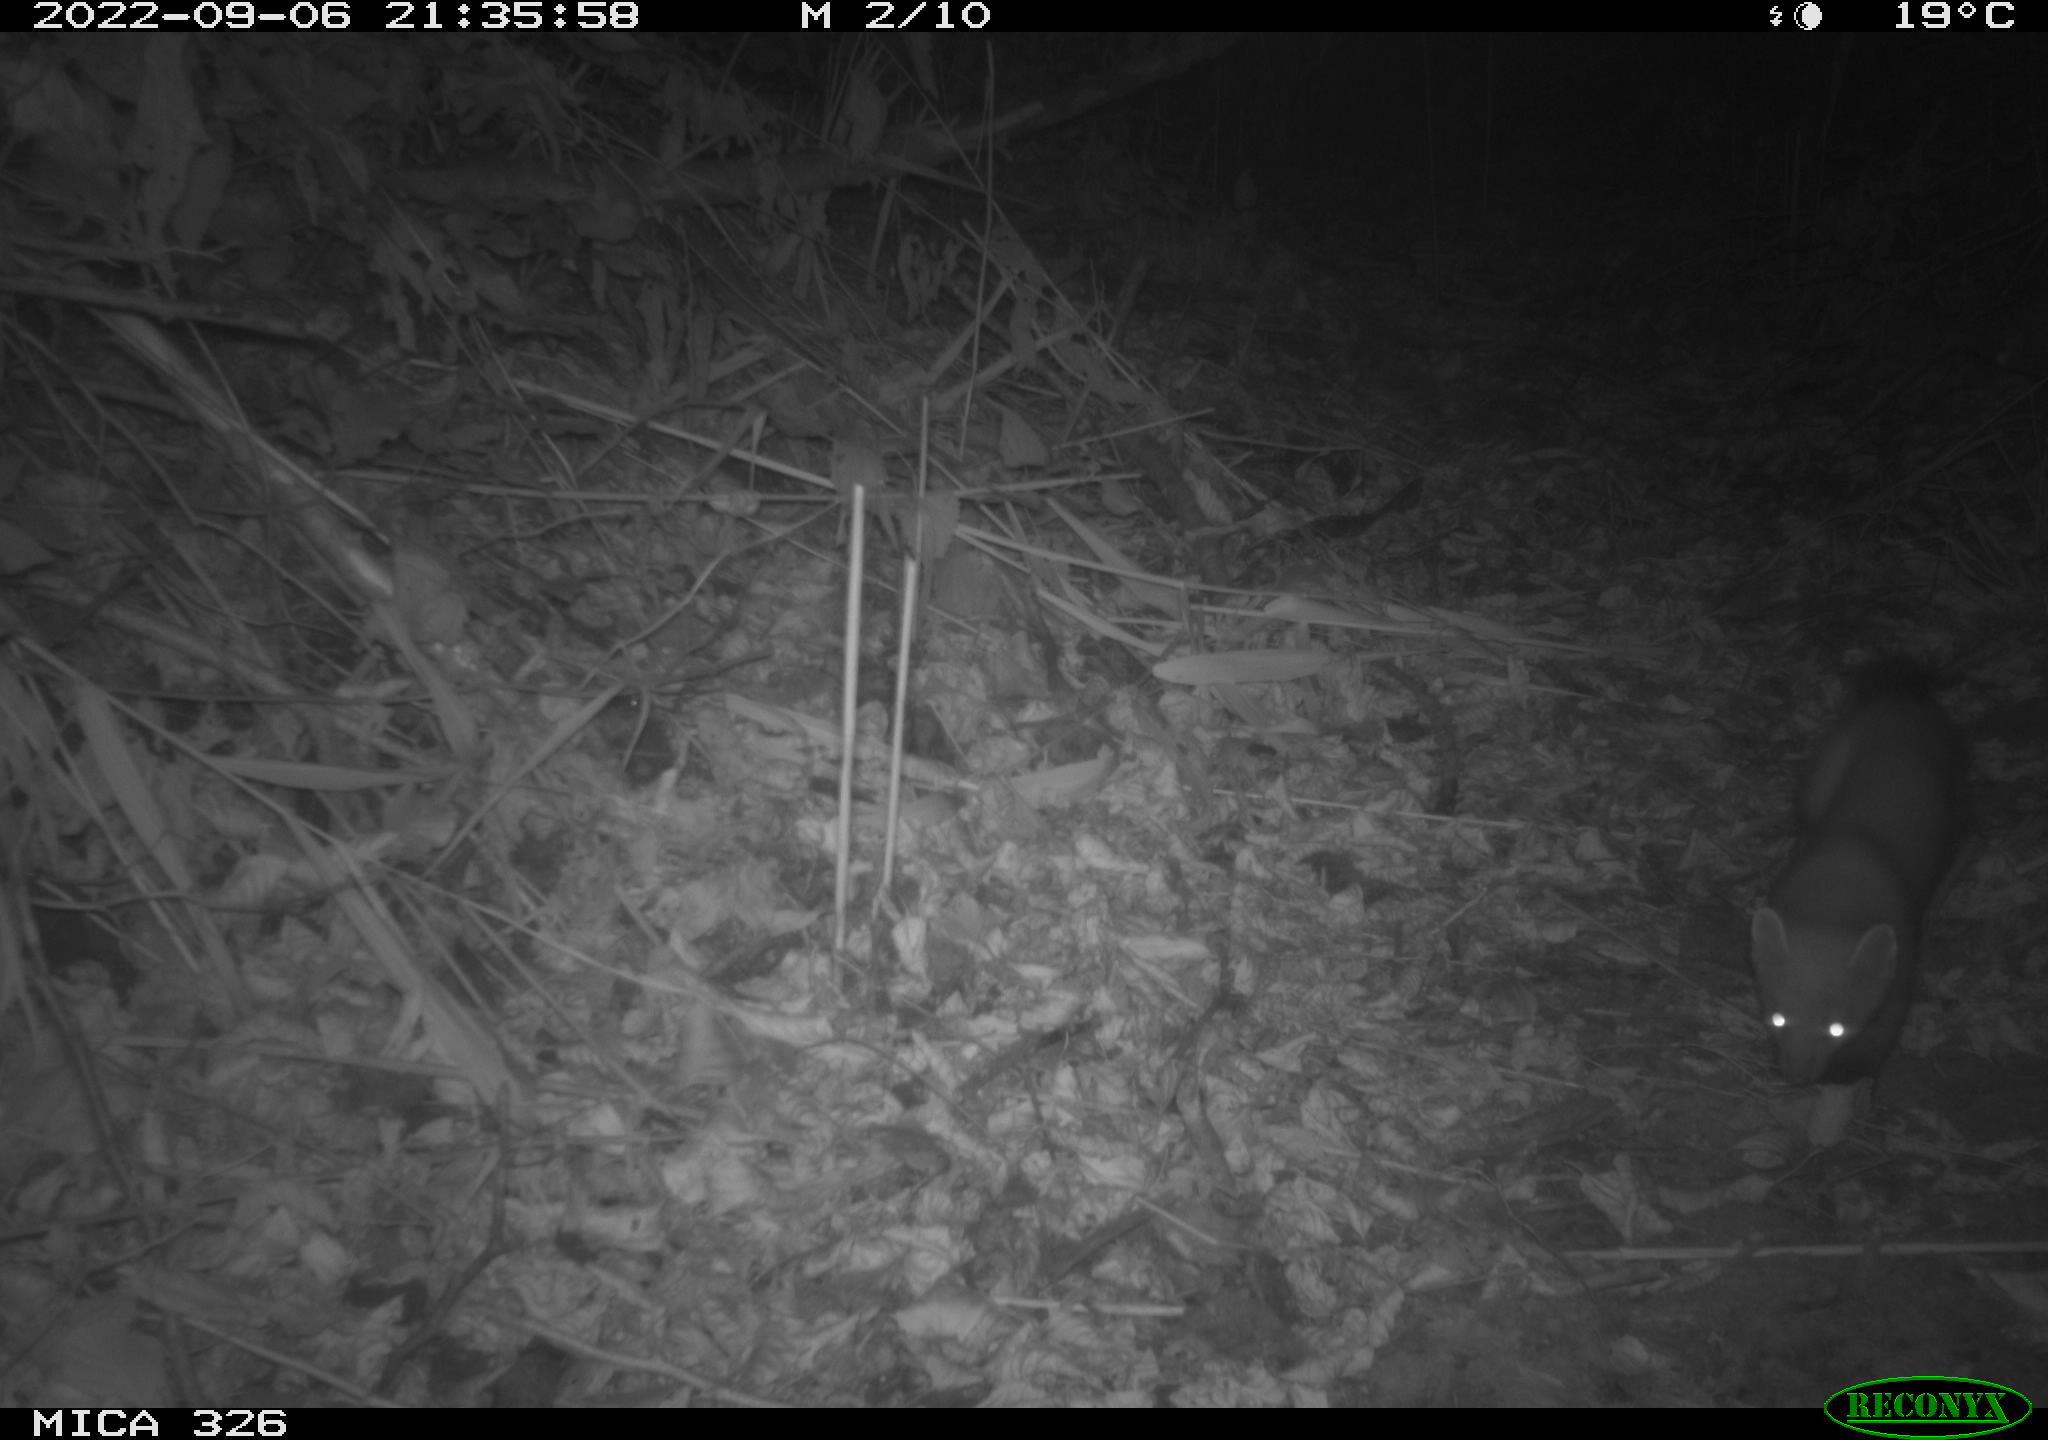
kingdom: Animalia
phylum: Chordata
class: Mammalia
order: Carnivora
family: Mustelidae
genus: Martes
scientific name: Martes martes
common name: European pine marten
